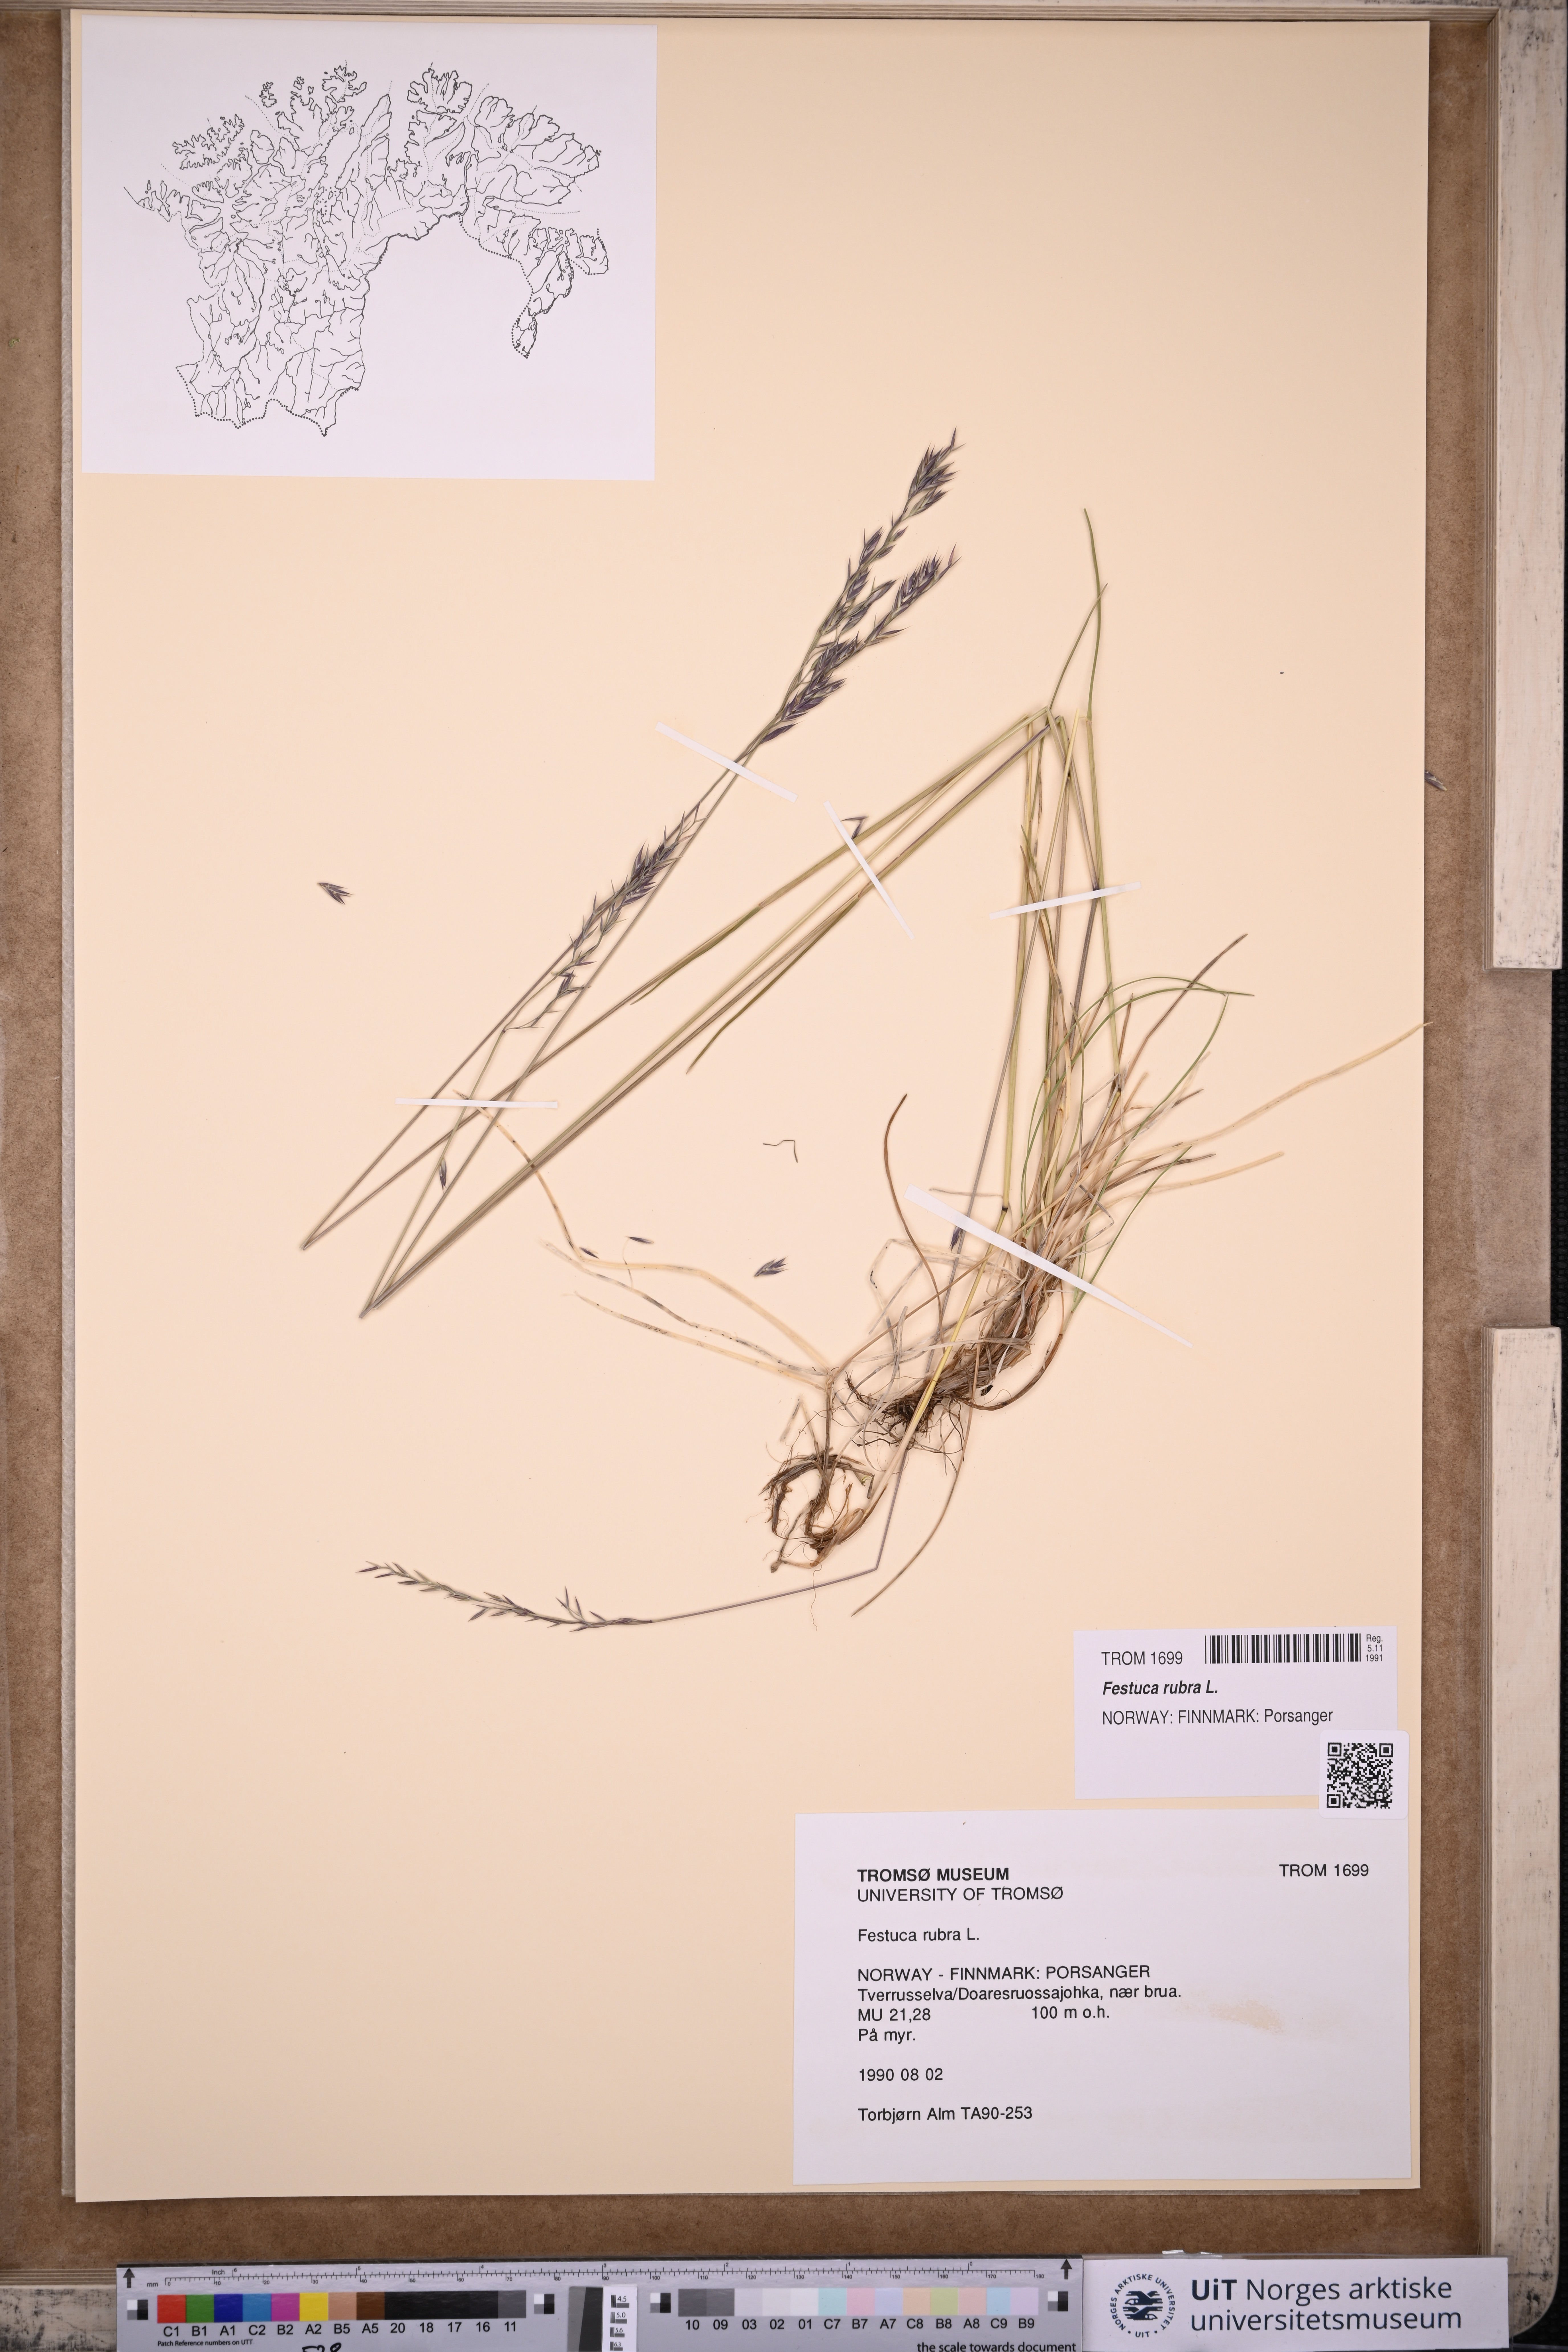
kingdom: Plantae
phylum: Tracheophyta
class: Liliopsida
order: Poales
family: Poaceae
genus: Festuca
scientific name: Festuca rubra
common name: Red fescue
